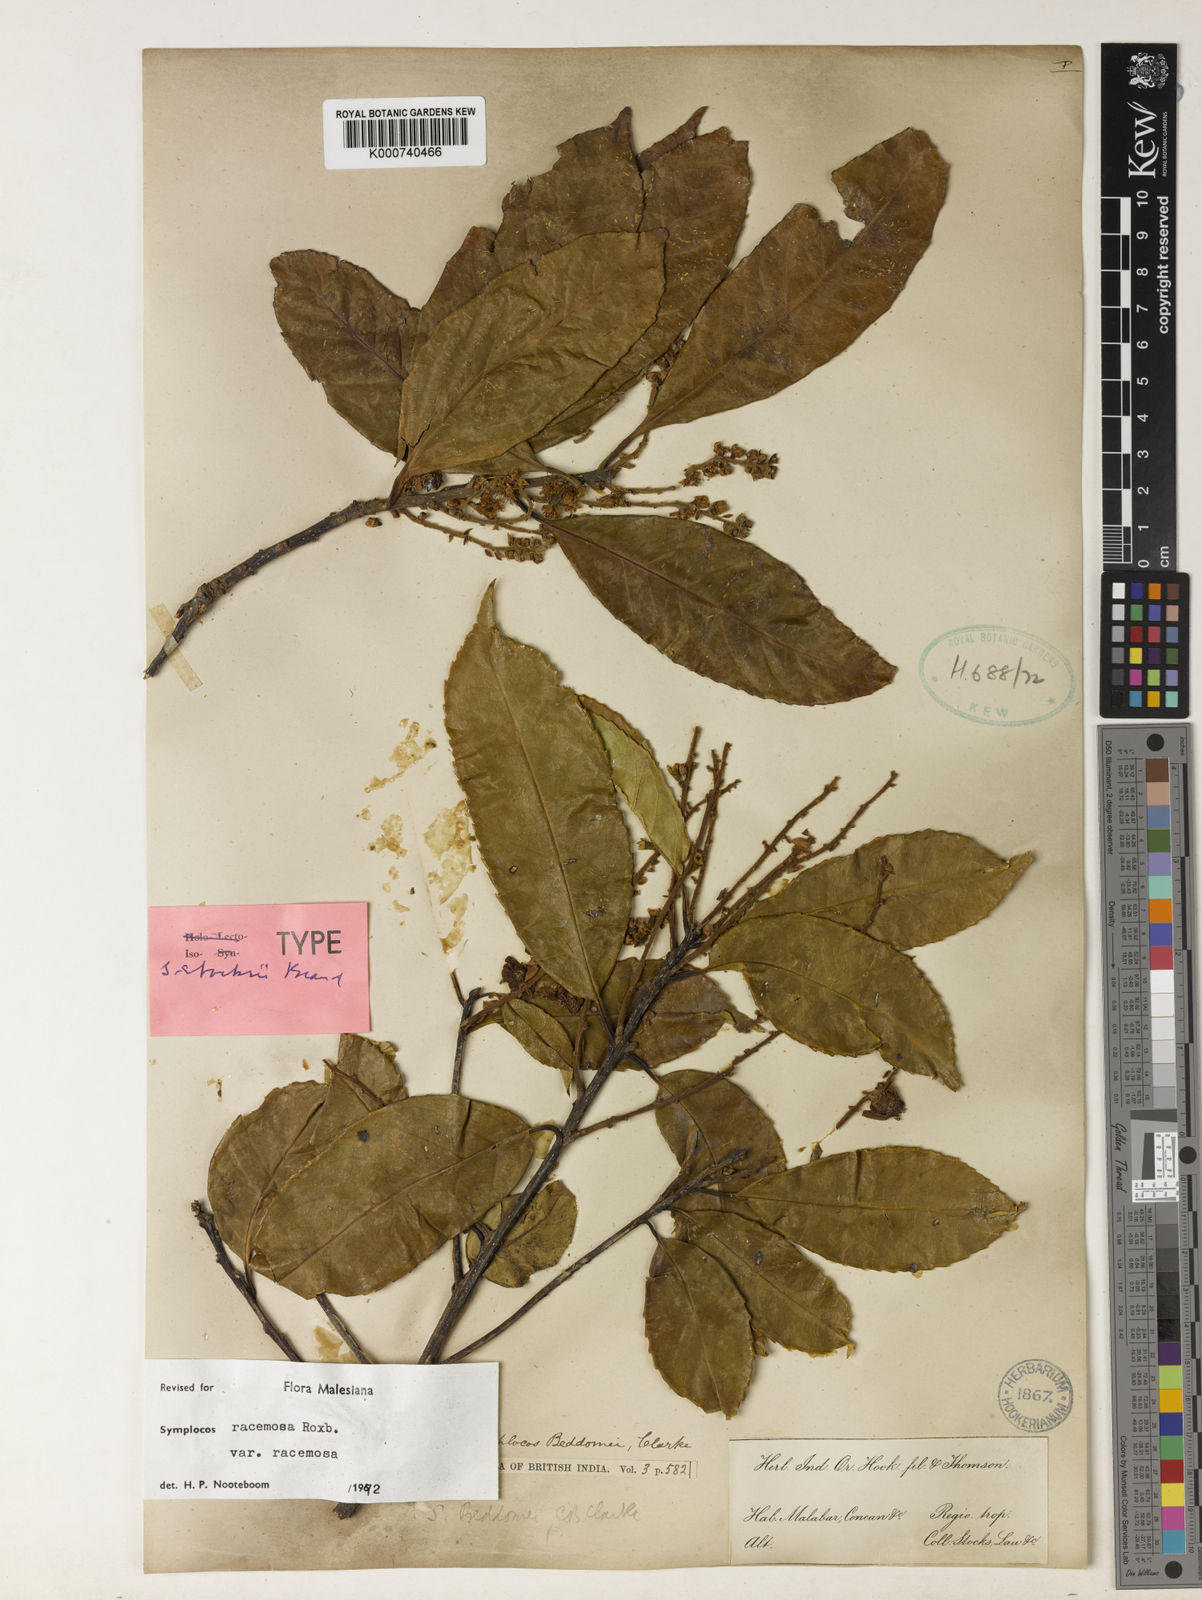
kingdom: Plantae
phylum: Tracheophyta
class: Magnoliopsida
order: Ericales
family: Symplocaceae
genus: Symplocos
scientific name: Symplocos racemosa
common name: Lodhtree
